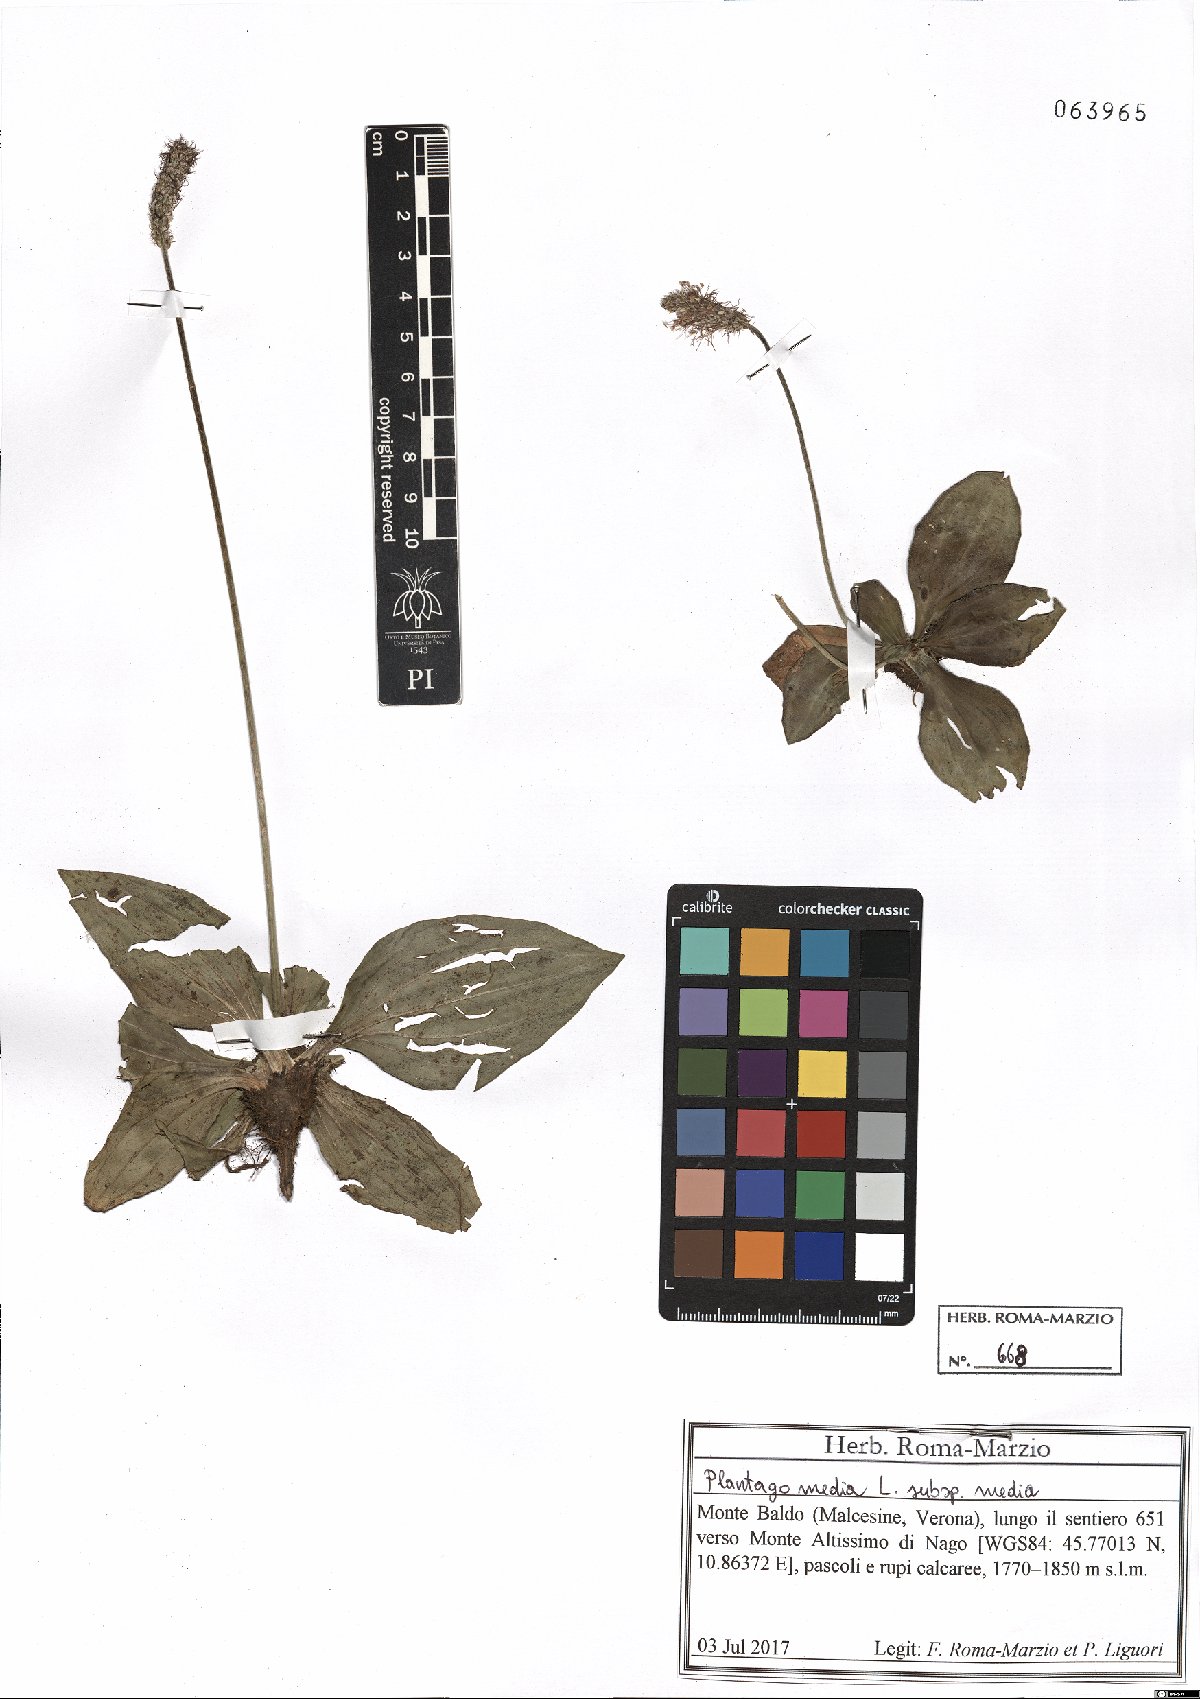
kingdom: Plantae
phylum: Tracheophyta
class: Magnoliopsida
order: Lamiales
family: Plantaginaceae
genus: Plantago
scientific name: Plantago media
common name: Hoary plantain
